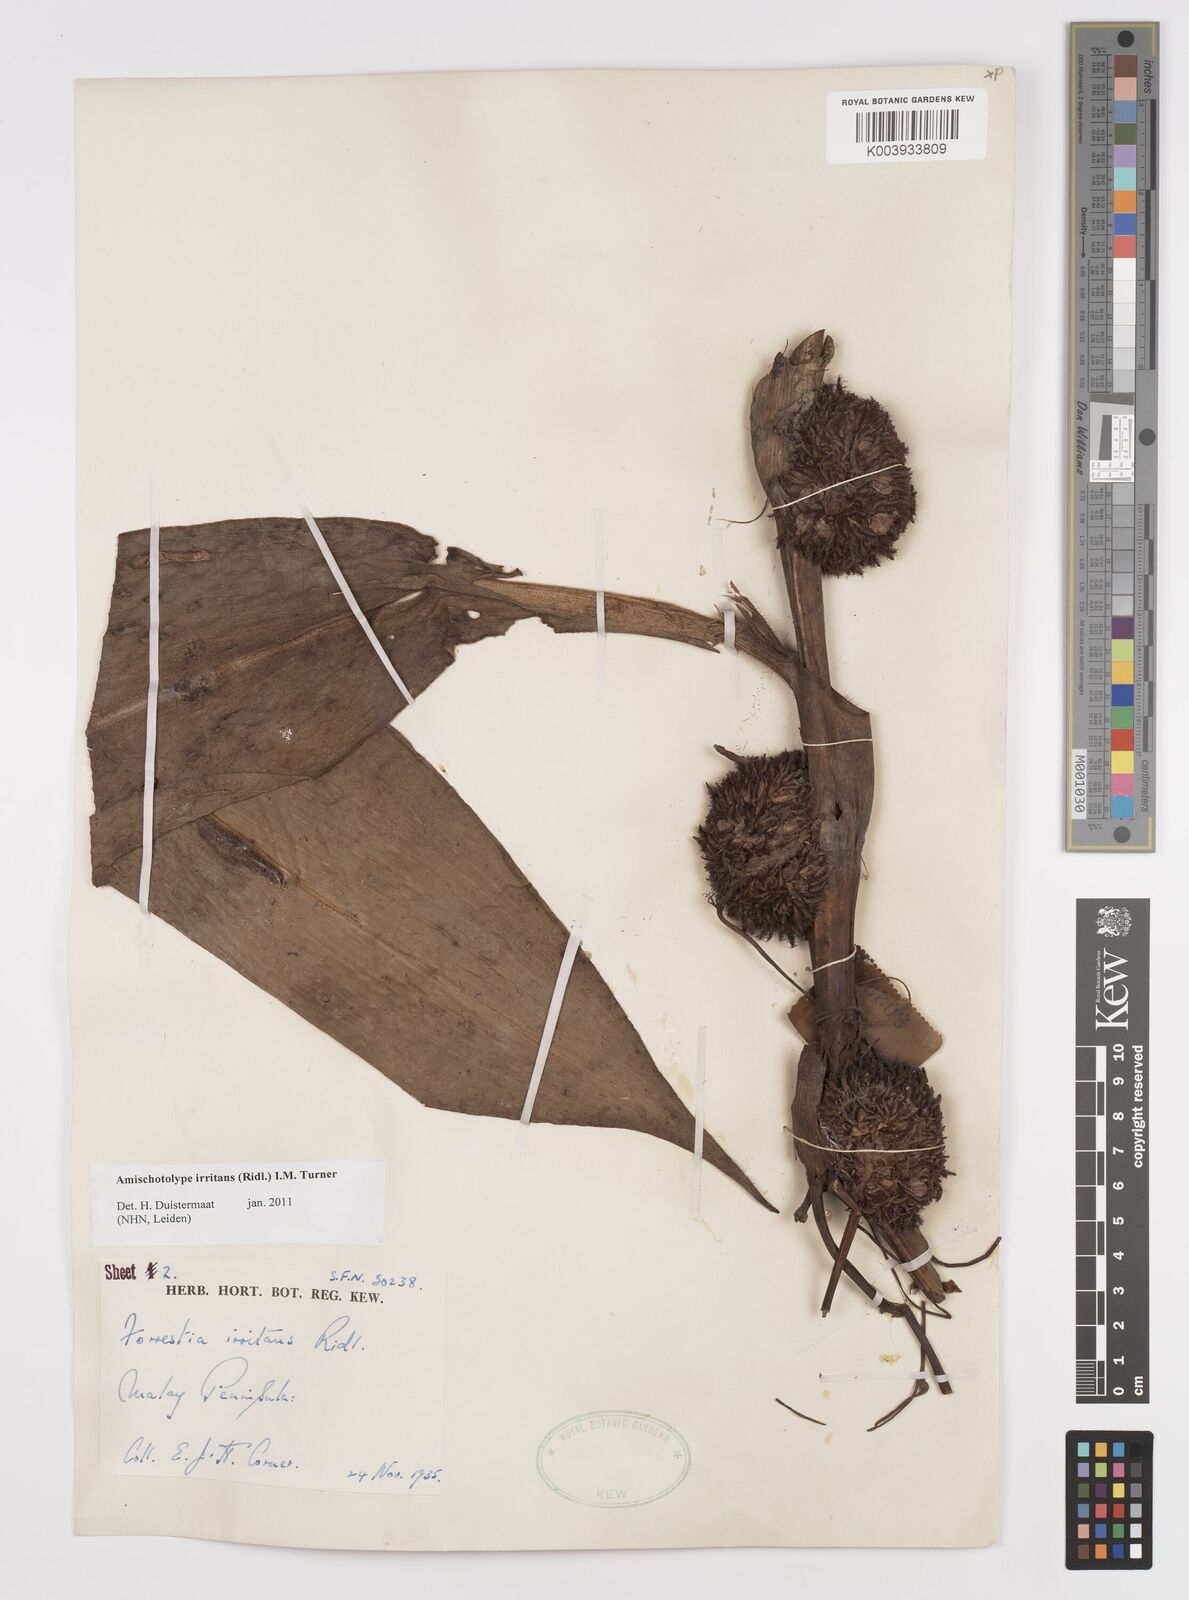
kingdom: Plantae
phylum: Tracheophyta
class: Liliopsida
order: Commelinales
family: Commelinaceae
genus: Amischotolype
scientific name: Amischotolype irritans
